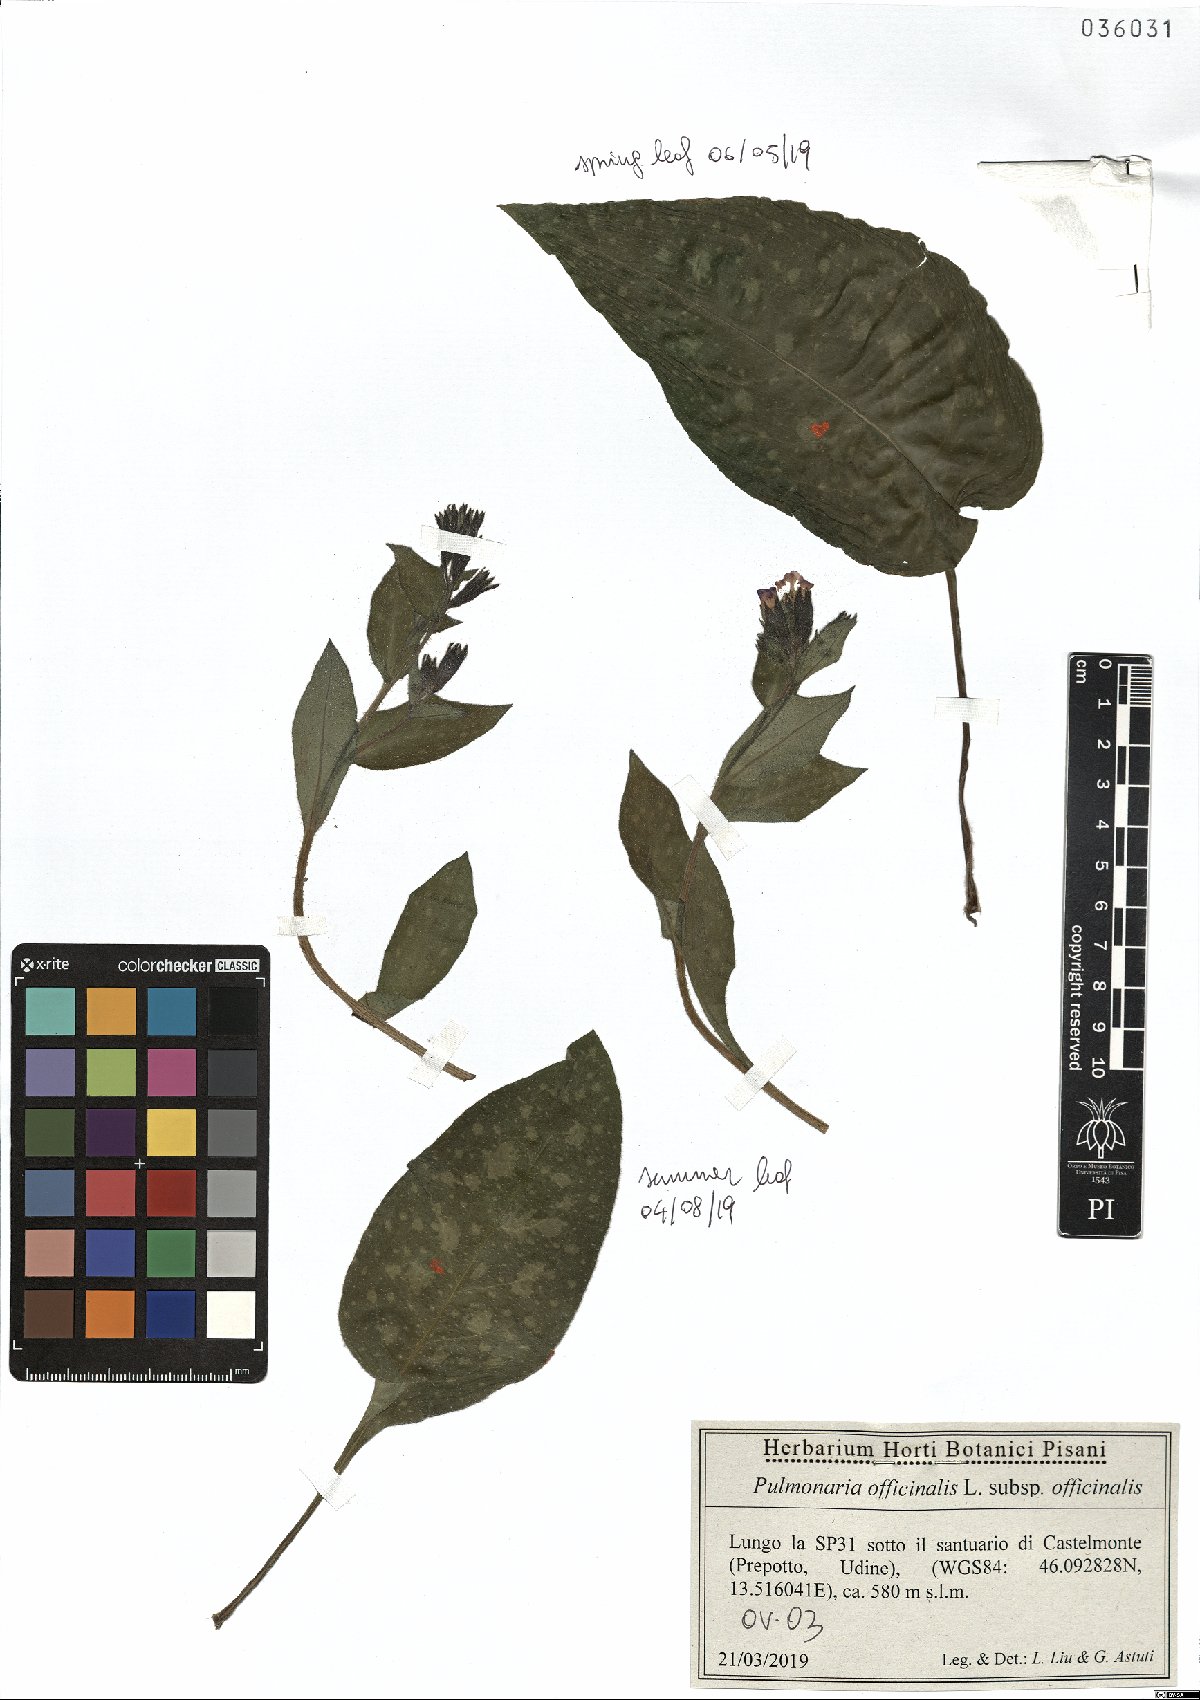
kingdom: Plantae
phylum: Tracheophyta
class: Magnoliopsida
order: Boraginales
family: Boraginaceae
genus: Pulmonaria
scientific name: Pulmonaria officinalis
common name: Lungwort
